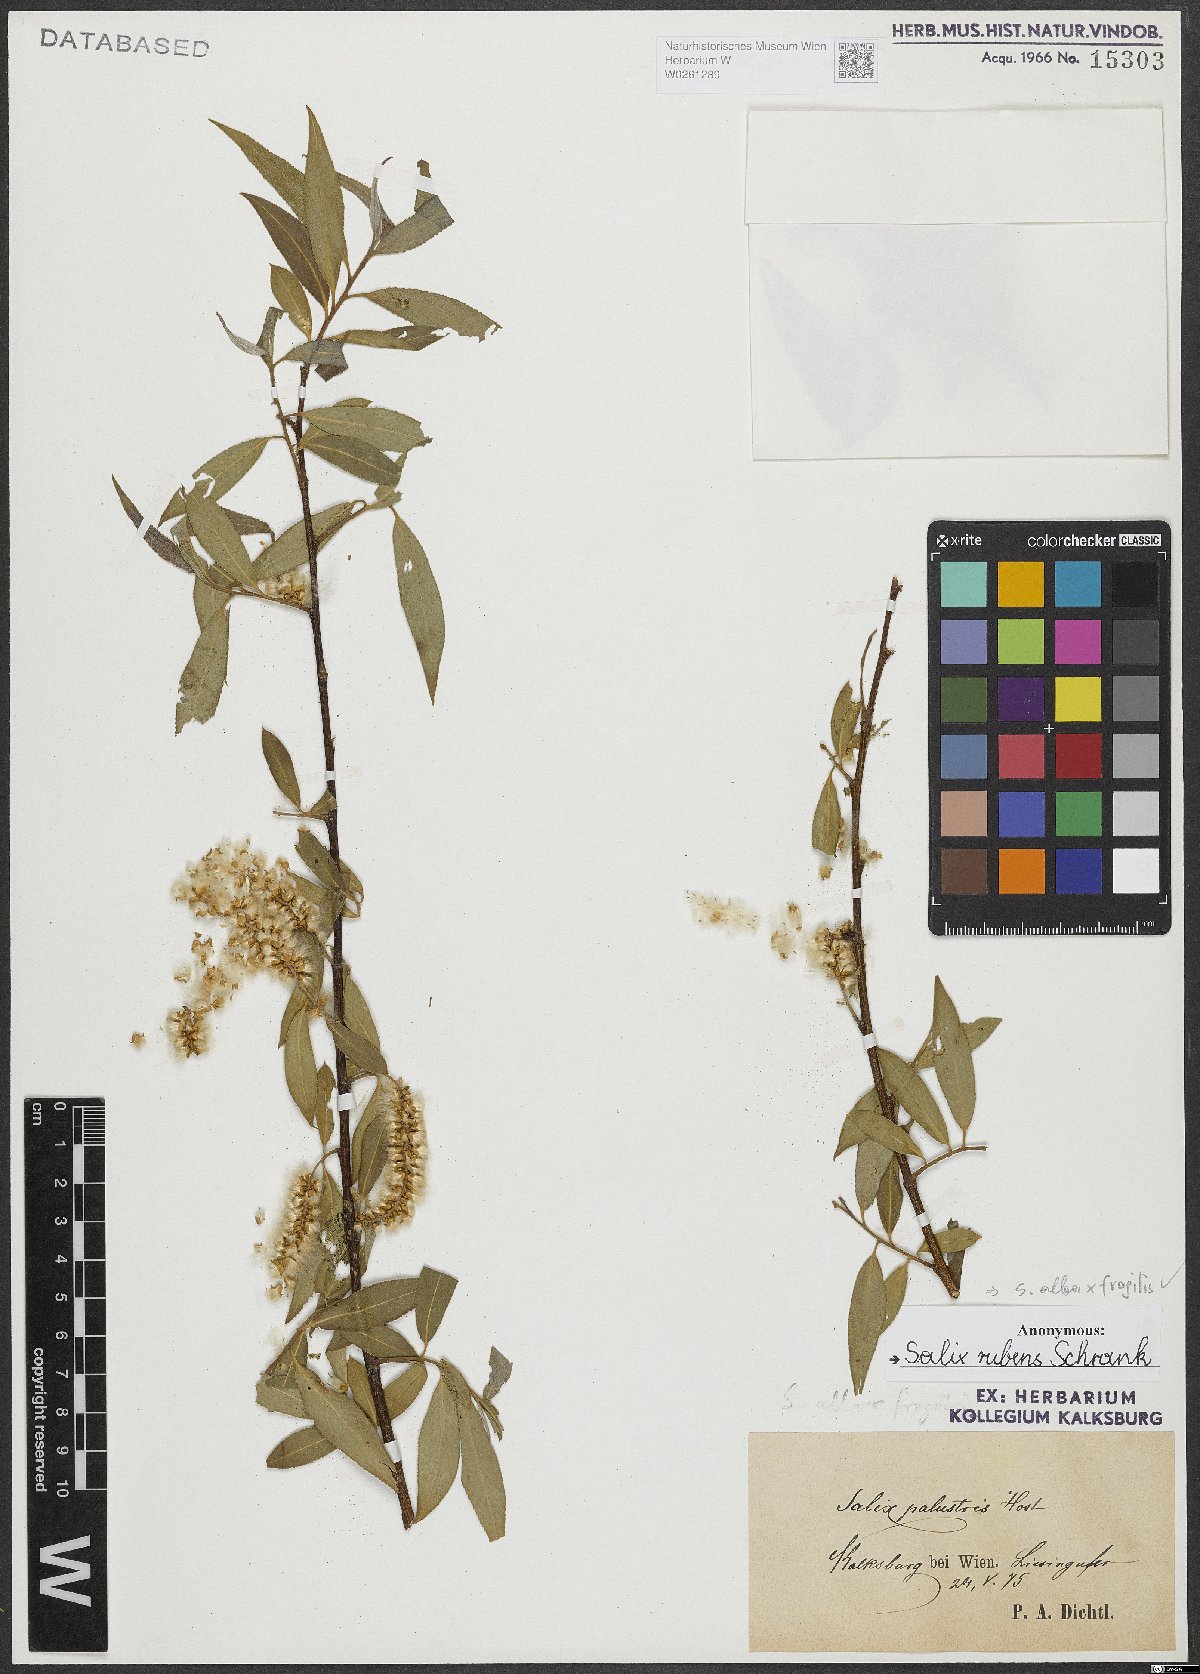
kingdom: Plantae
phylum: Tracheophyta
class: Magnoliopsida
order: Malpighiales
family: Salicaceae
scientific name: Salicaceae
